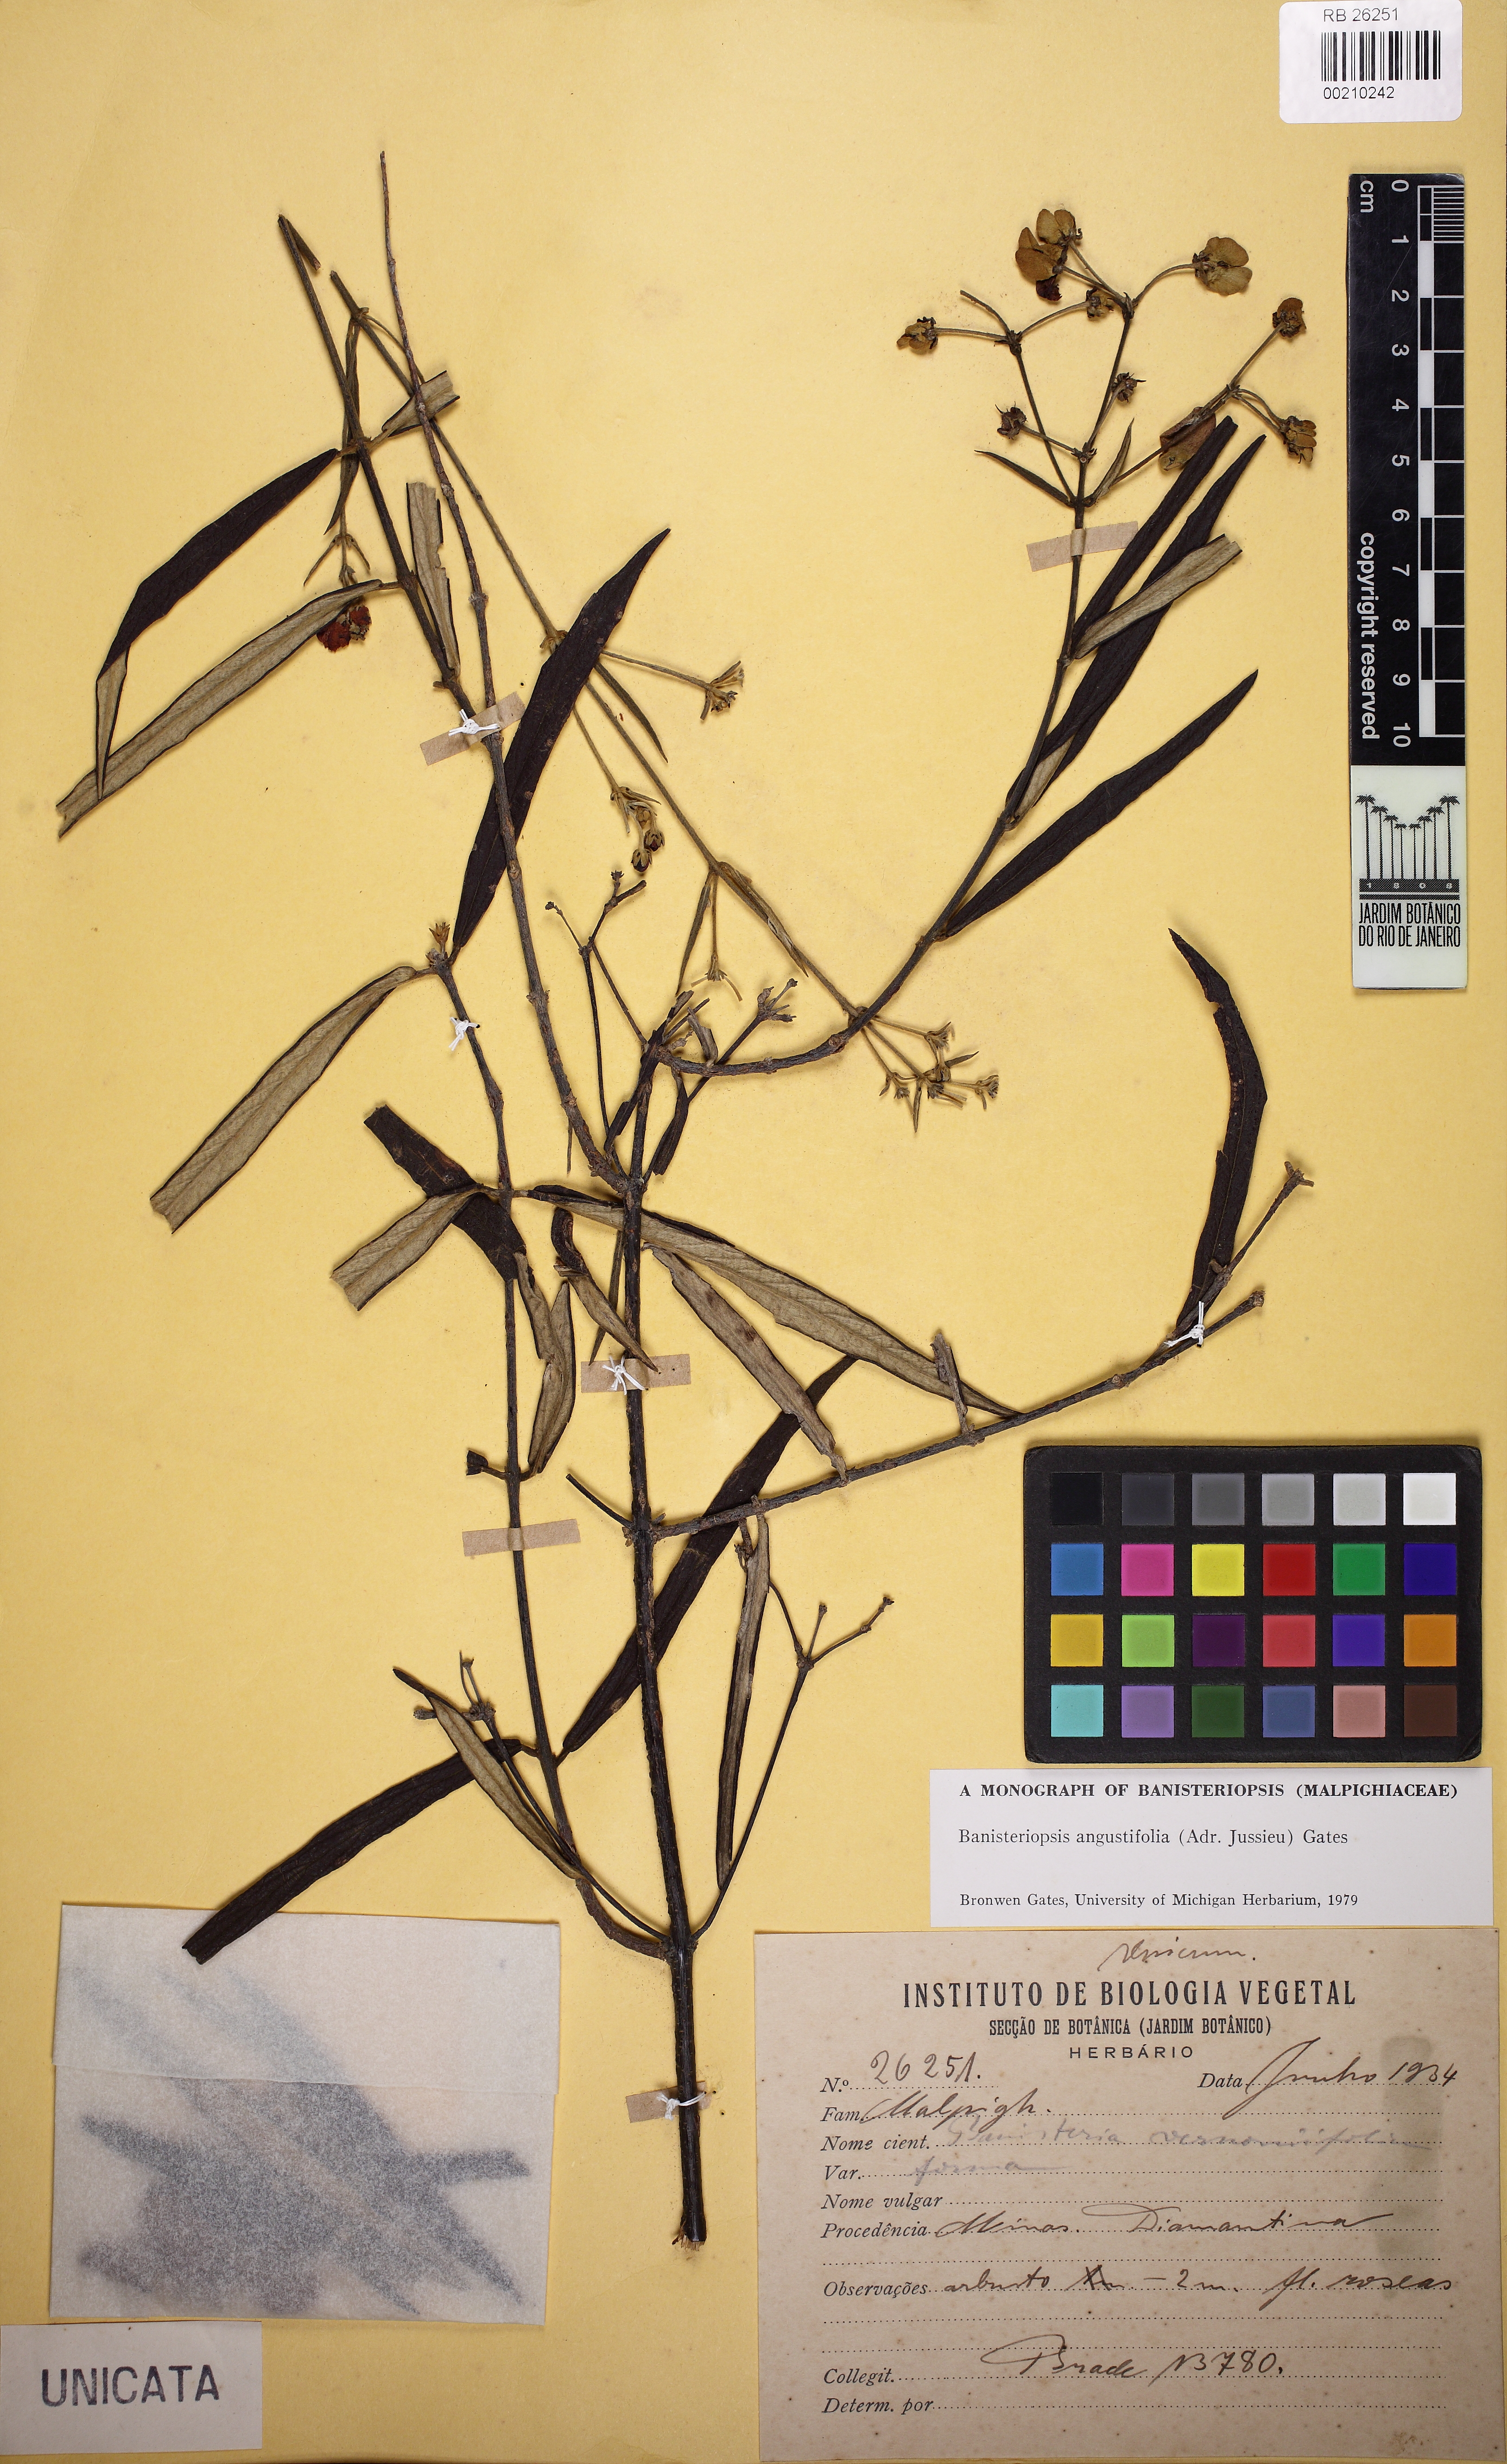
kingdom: Plantae
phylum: Tracheophyta
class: Magnoliopsida
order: Malpighiales
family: Malpighiaceae
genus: Banisteriopsis
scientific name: Banisteriopsis angustifolia
